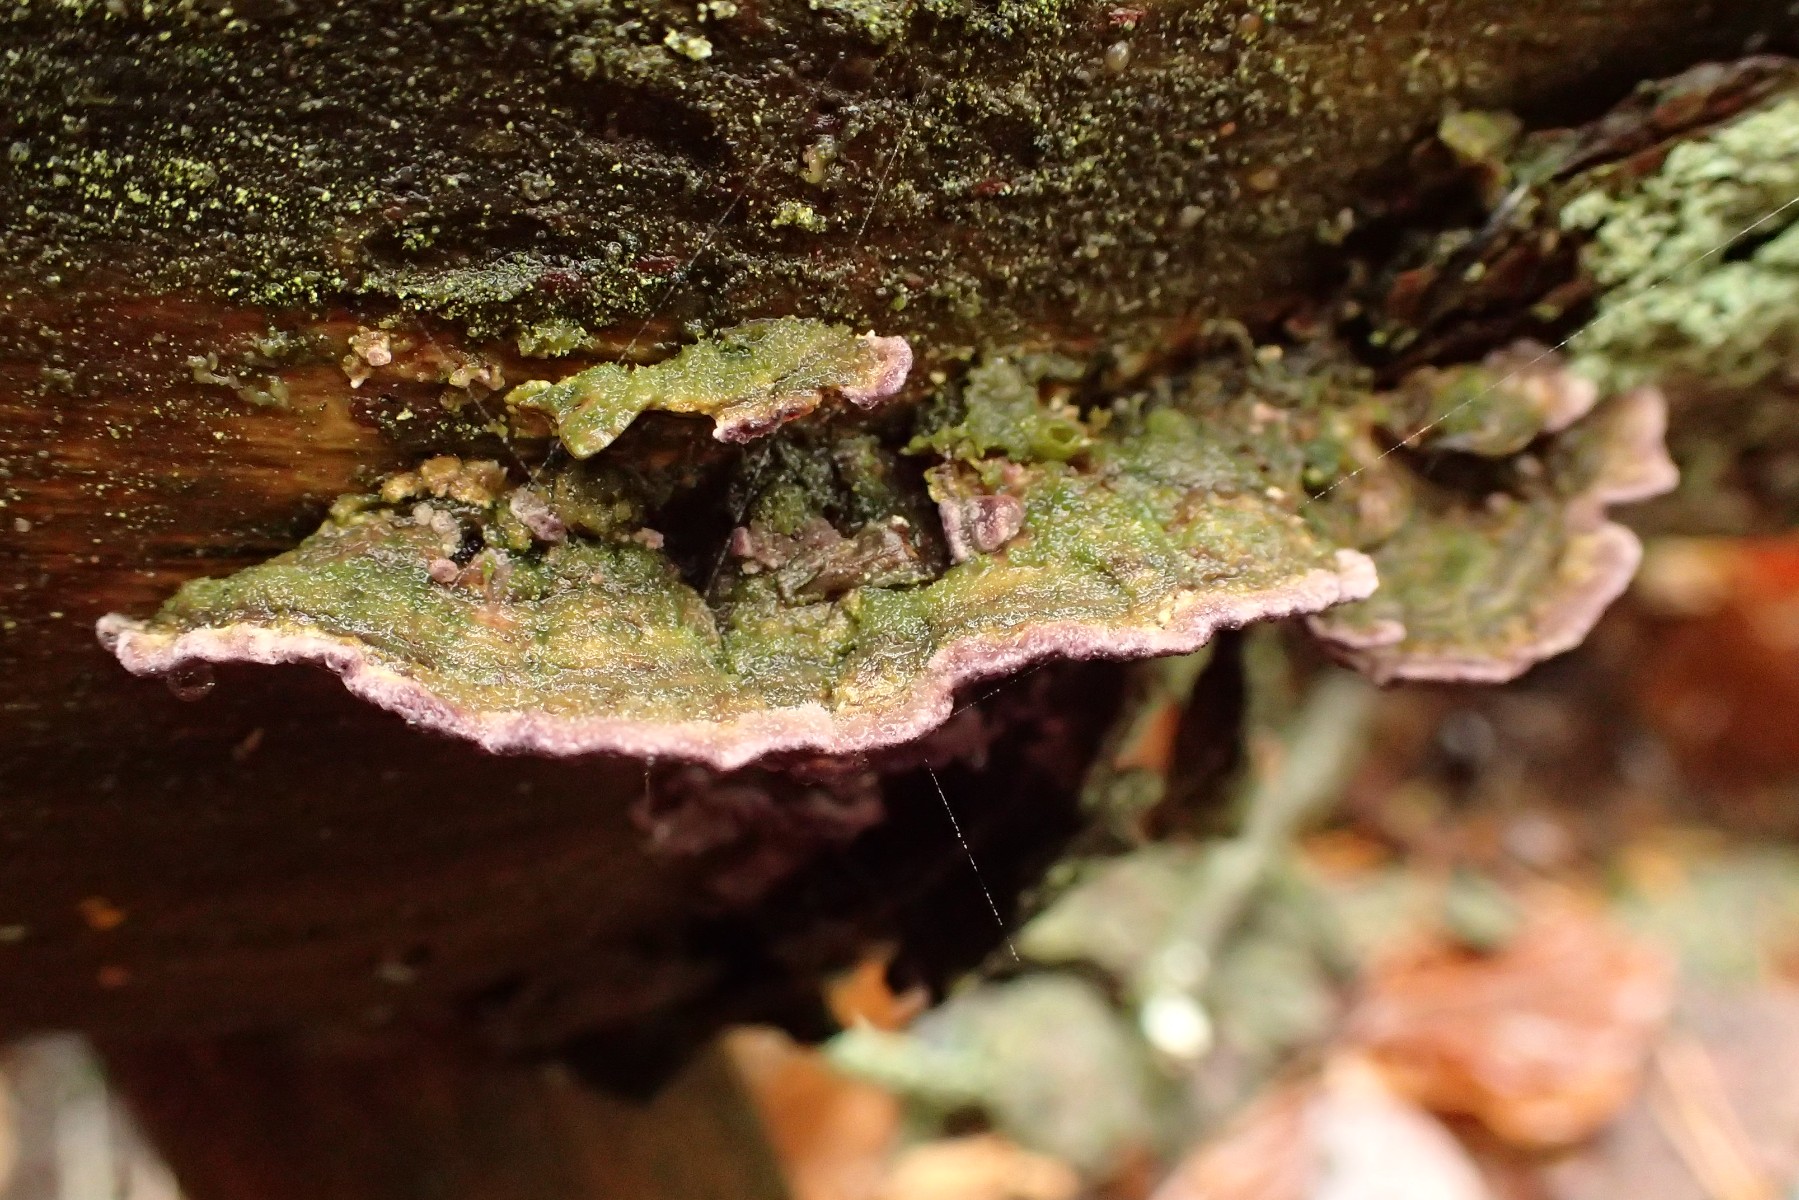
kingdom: Fungi
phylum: Basidiomycota
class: Agaricomycetes
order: Hymenochaetales
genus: Trichaptum
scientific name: Trichaptum abietinum
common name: almindelig violporesvamp
